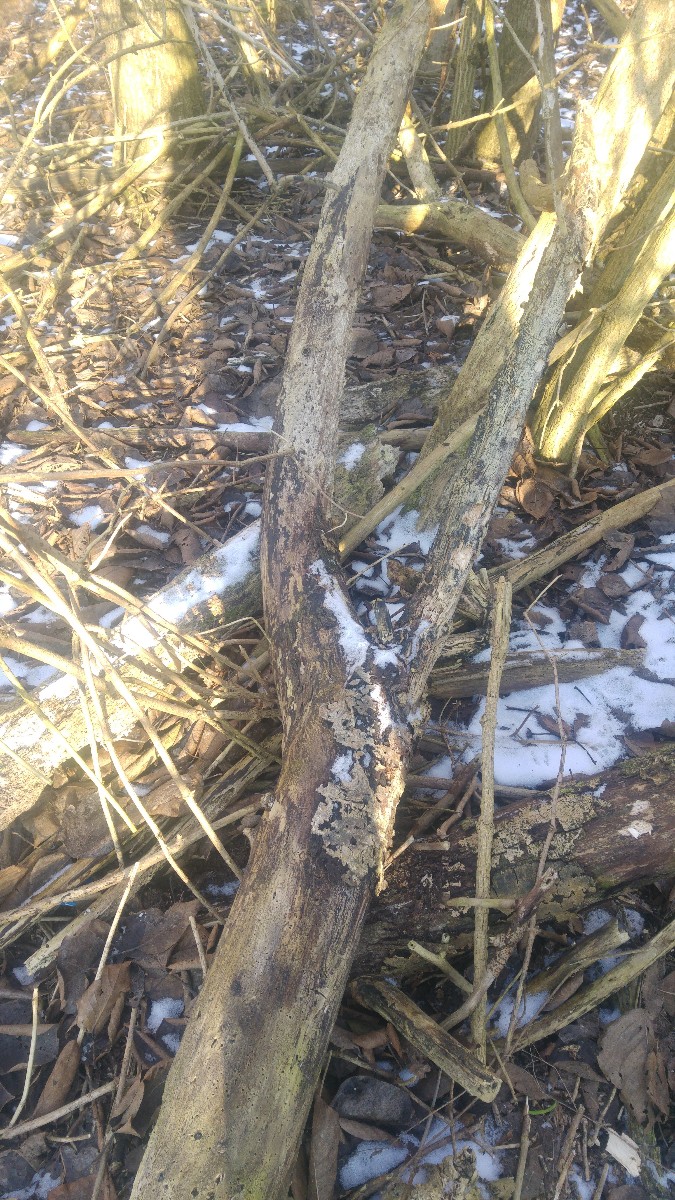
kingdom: Fungi
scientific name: Fungi
